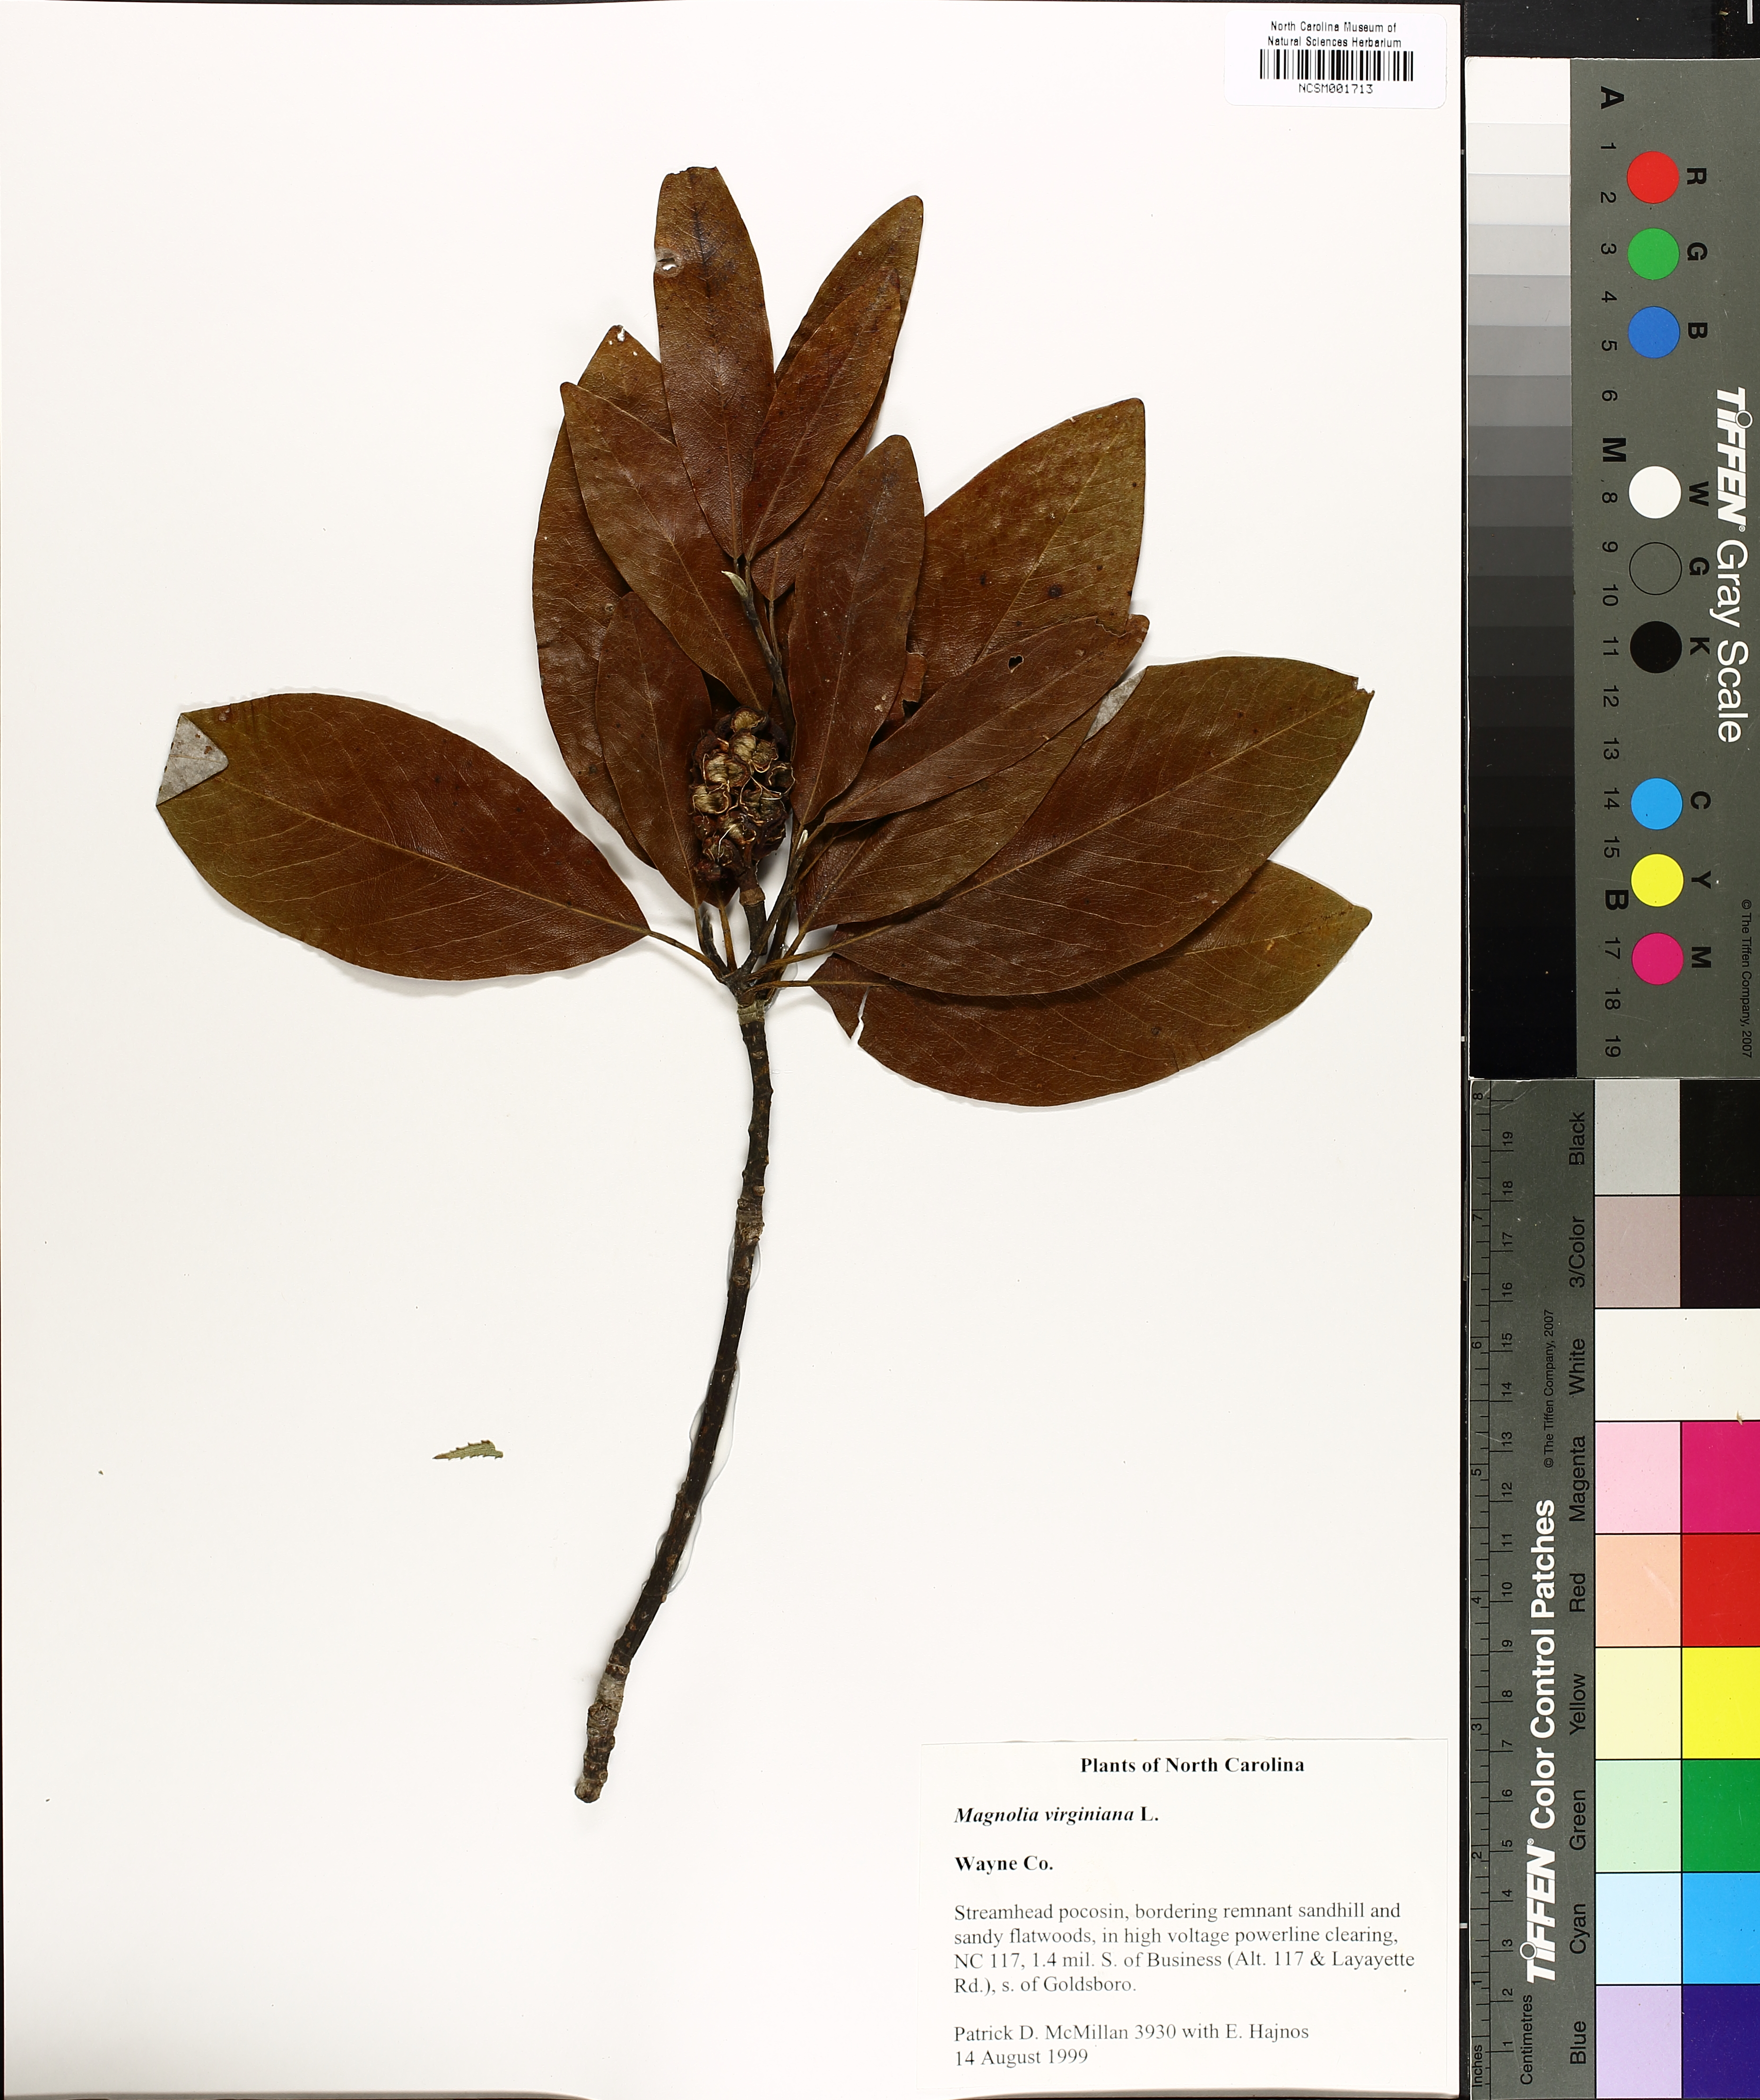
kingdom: Plantae
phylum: Tracheophyta
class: Magnoliopsida
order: Magnoliales
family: Magnoliaceae
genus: Magnolia
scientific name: Magnolia virginiana
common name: Swamp bay
